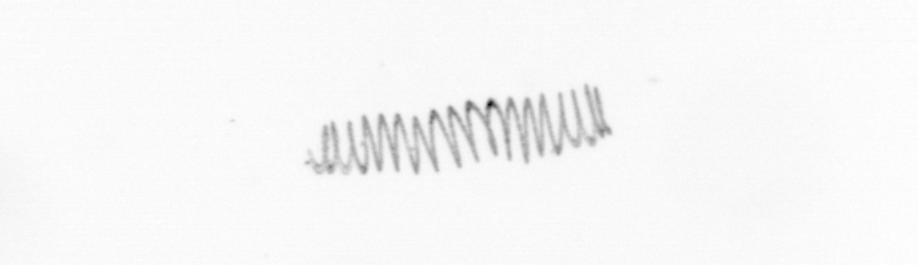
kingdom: Chromista
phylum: Ochrophyta
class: Bacillariophyceae
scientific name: Bacillariophyceae
